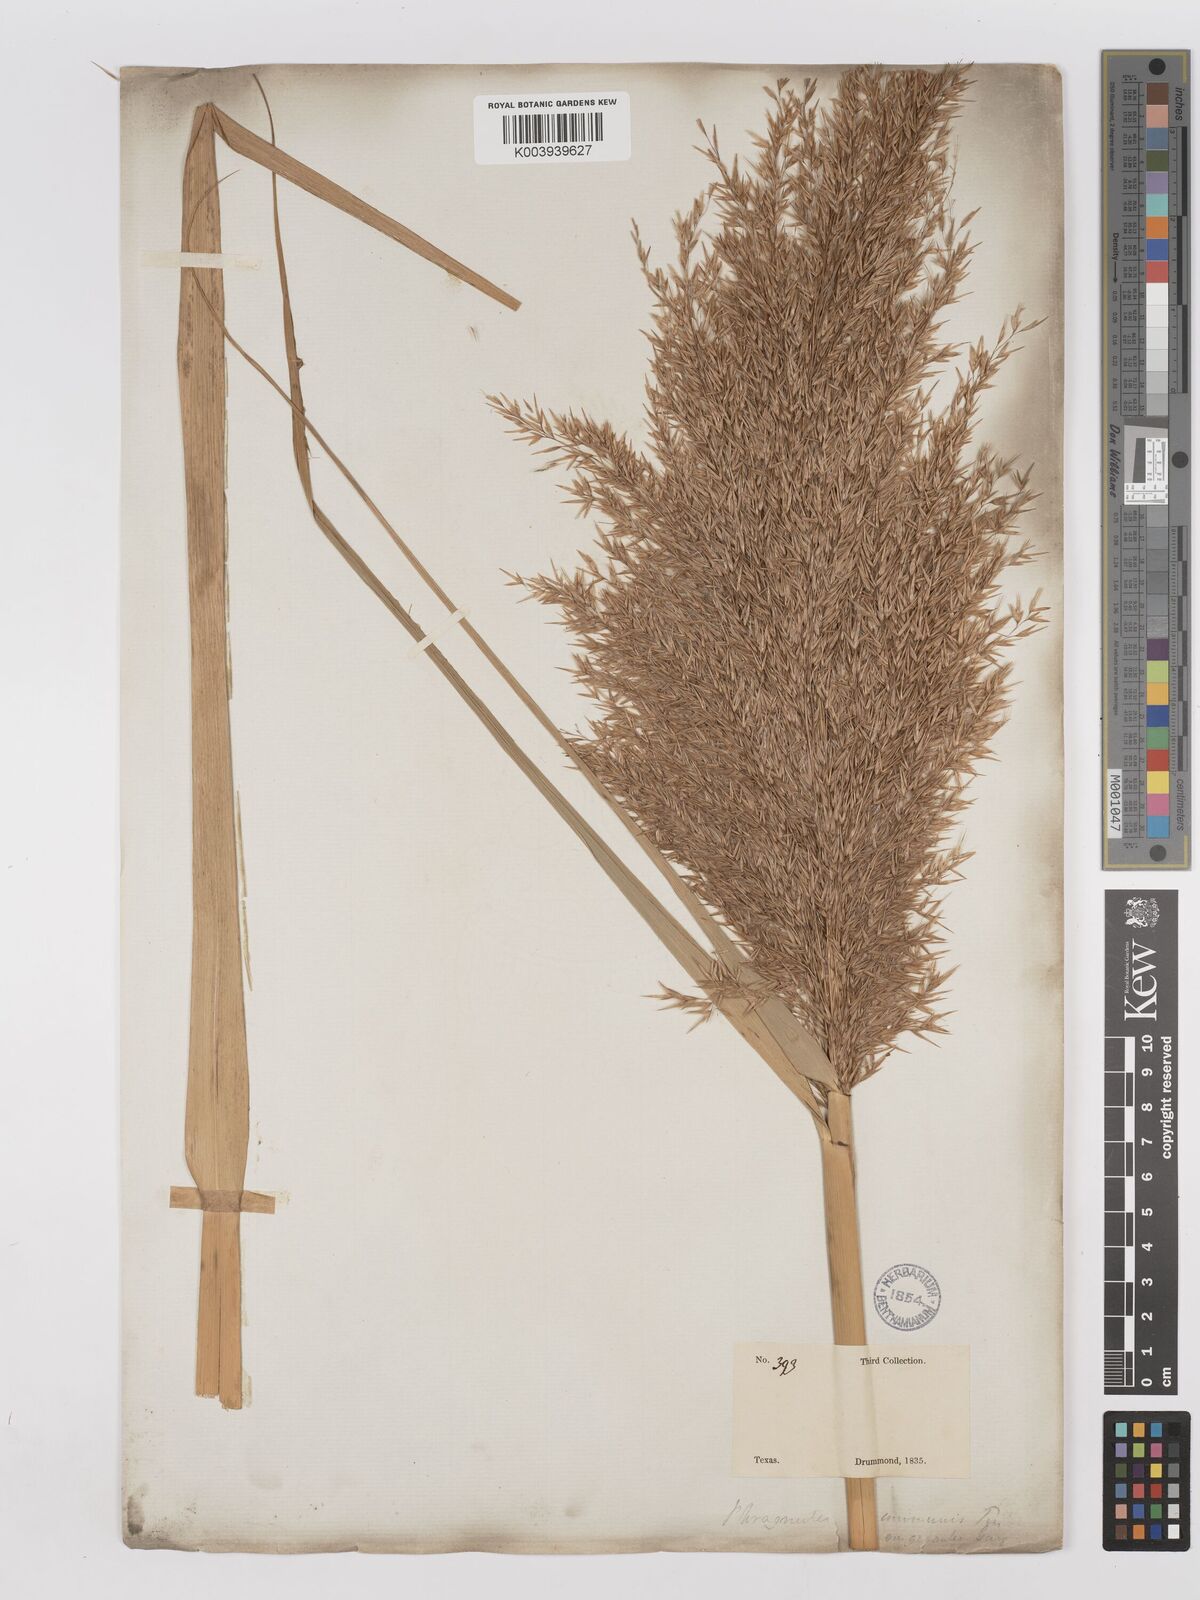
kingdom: Plantae
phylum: Tracheophyta
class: Liliopsida
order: Poales
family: Poaceae
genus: Phragmites
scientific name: Phragmites australis
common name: Common reed
